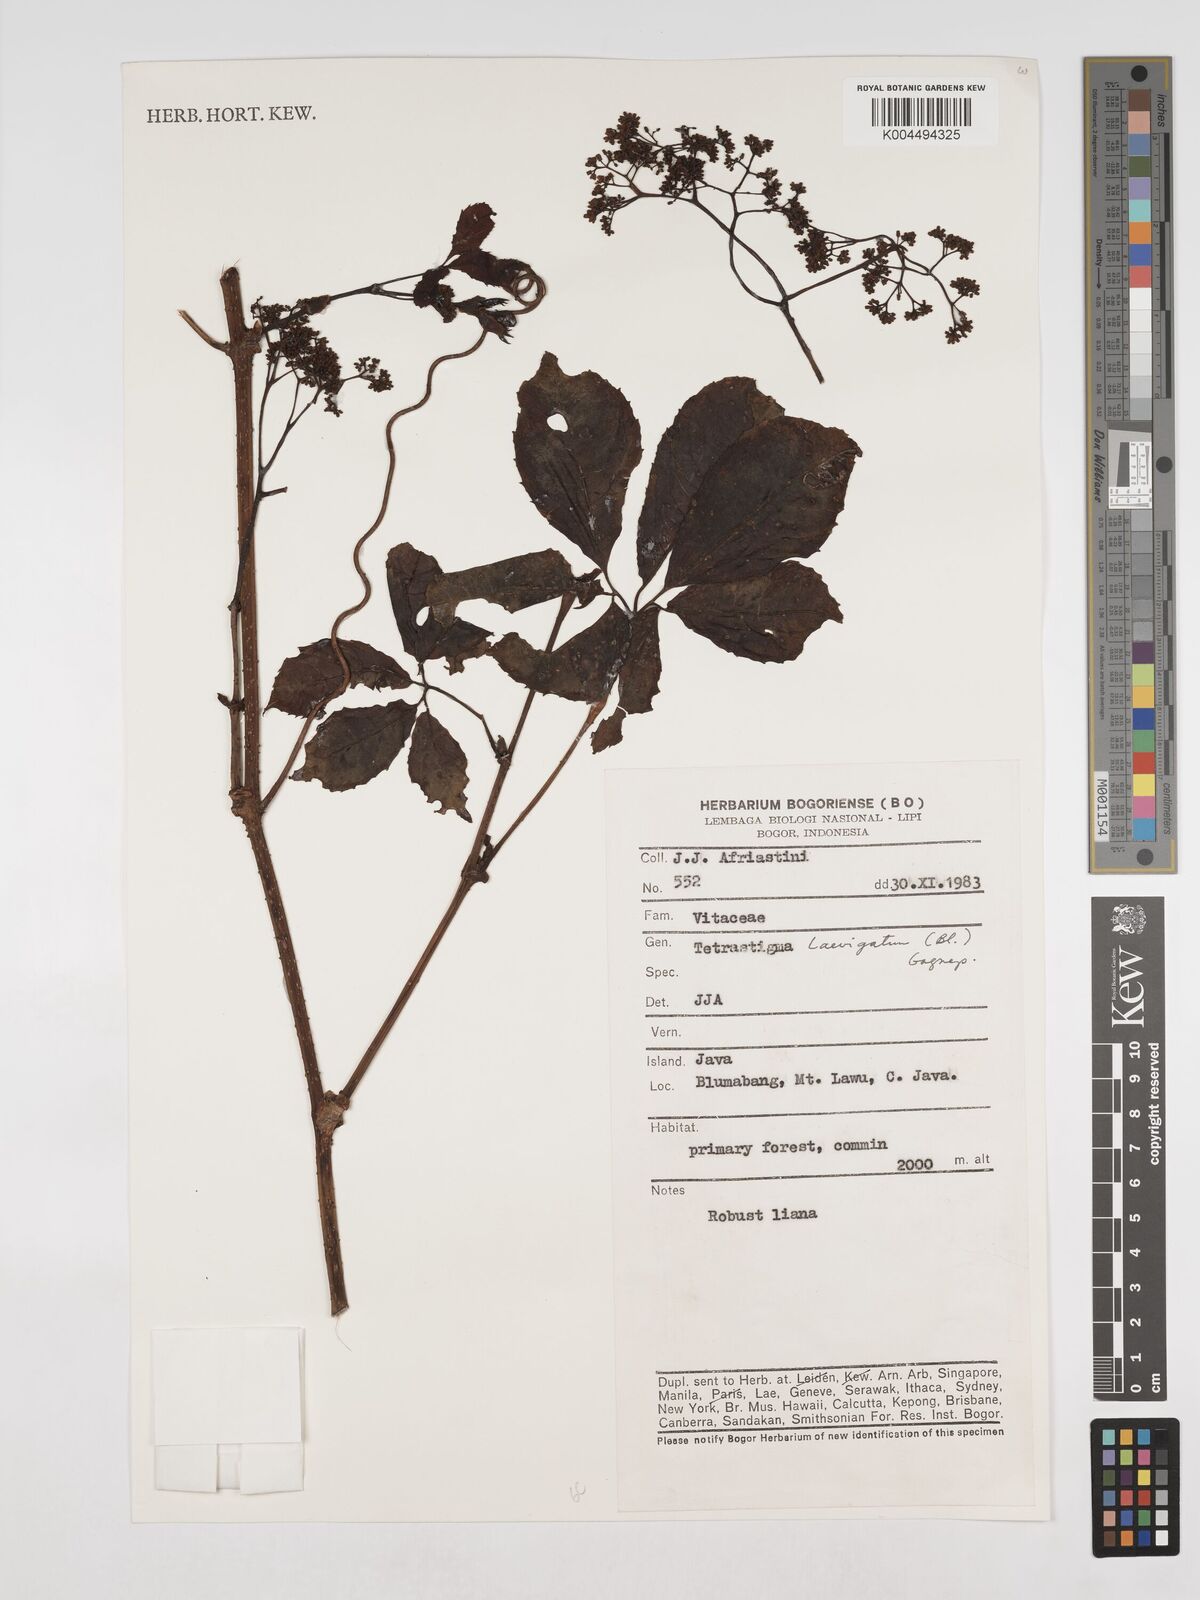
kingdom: Plantae
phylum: Tracheophyta
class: Magnoliopsida
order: Vitales
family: Vitaceae
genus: Tetrastigma
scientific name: Tetrastigma laevigatum
